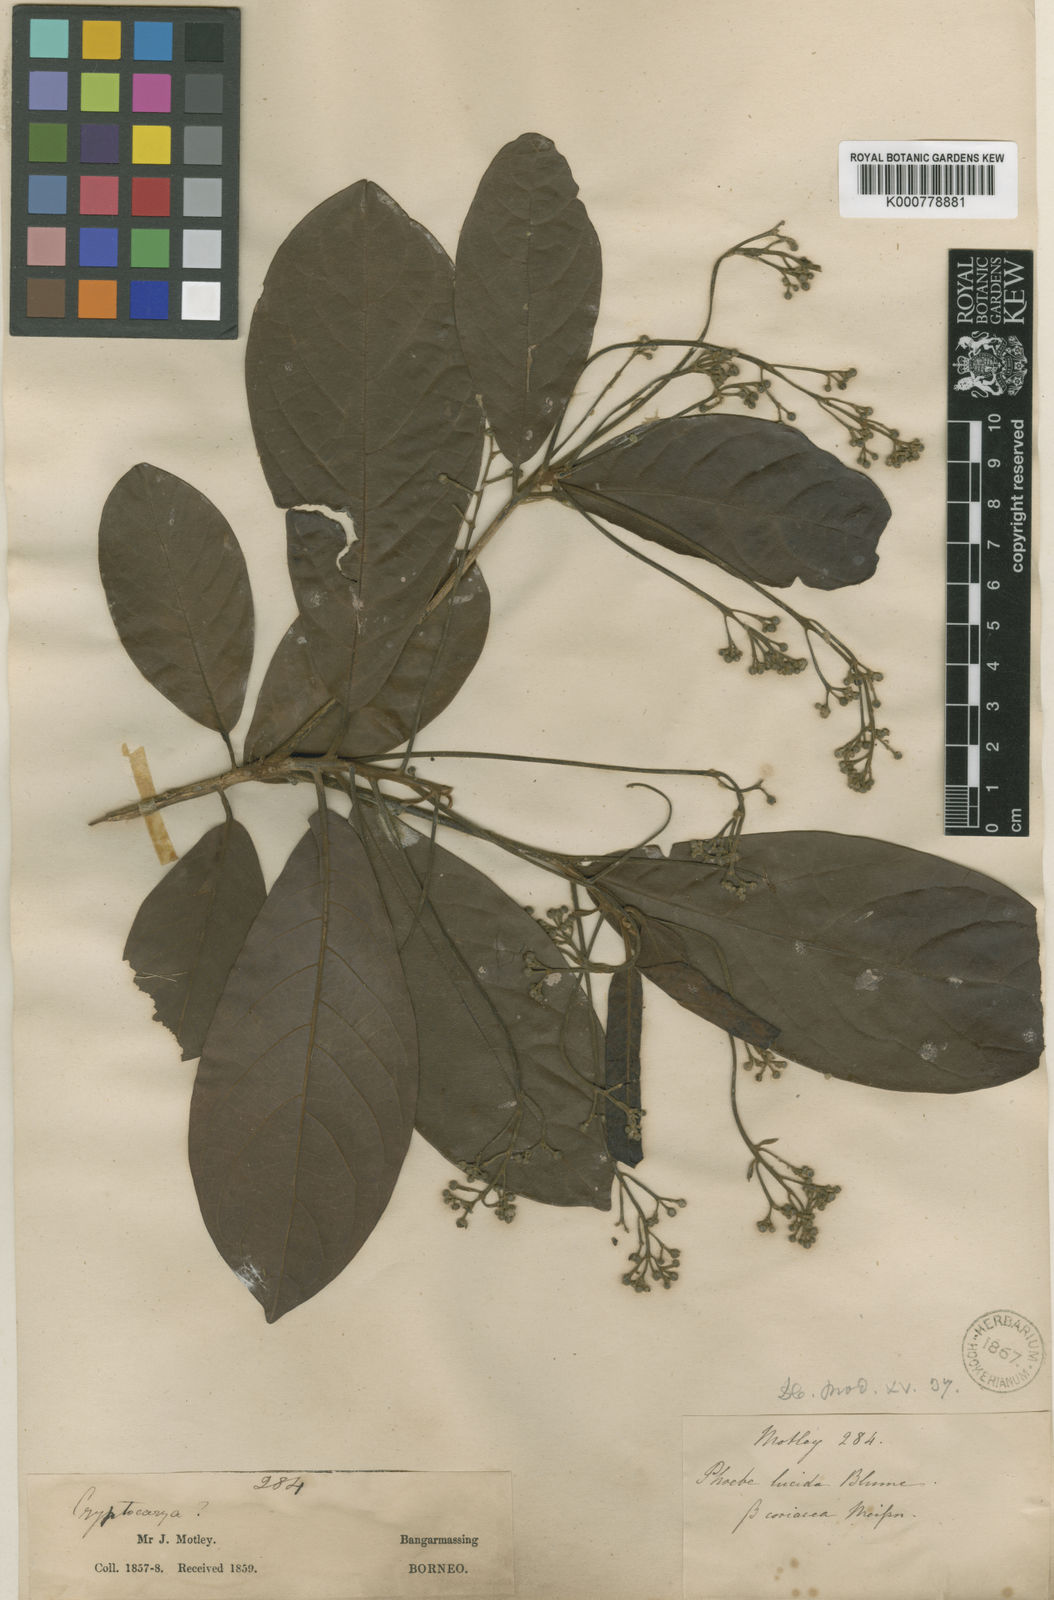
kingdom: Plantae
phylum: Tracheophyta
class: Magnoliopsida
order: Laurales
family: Lauraceae
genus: Phoebe
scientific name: Phoebe lucida
